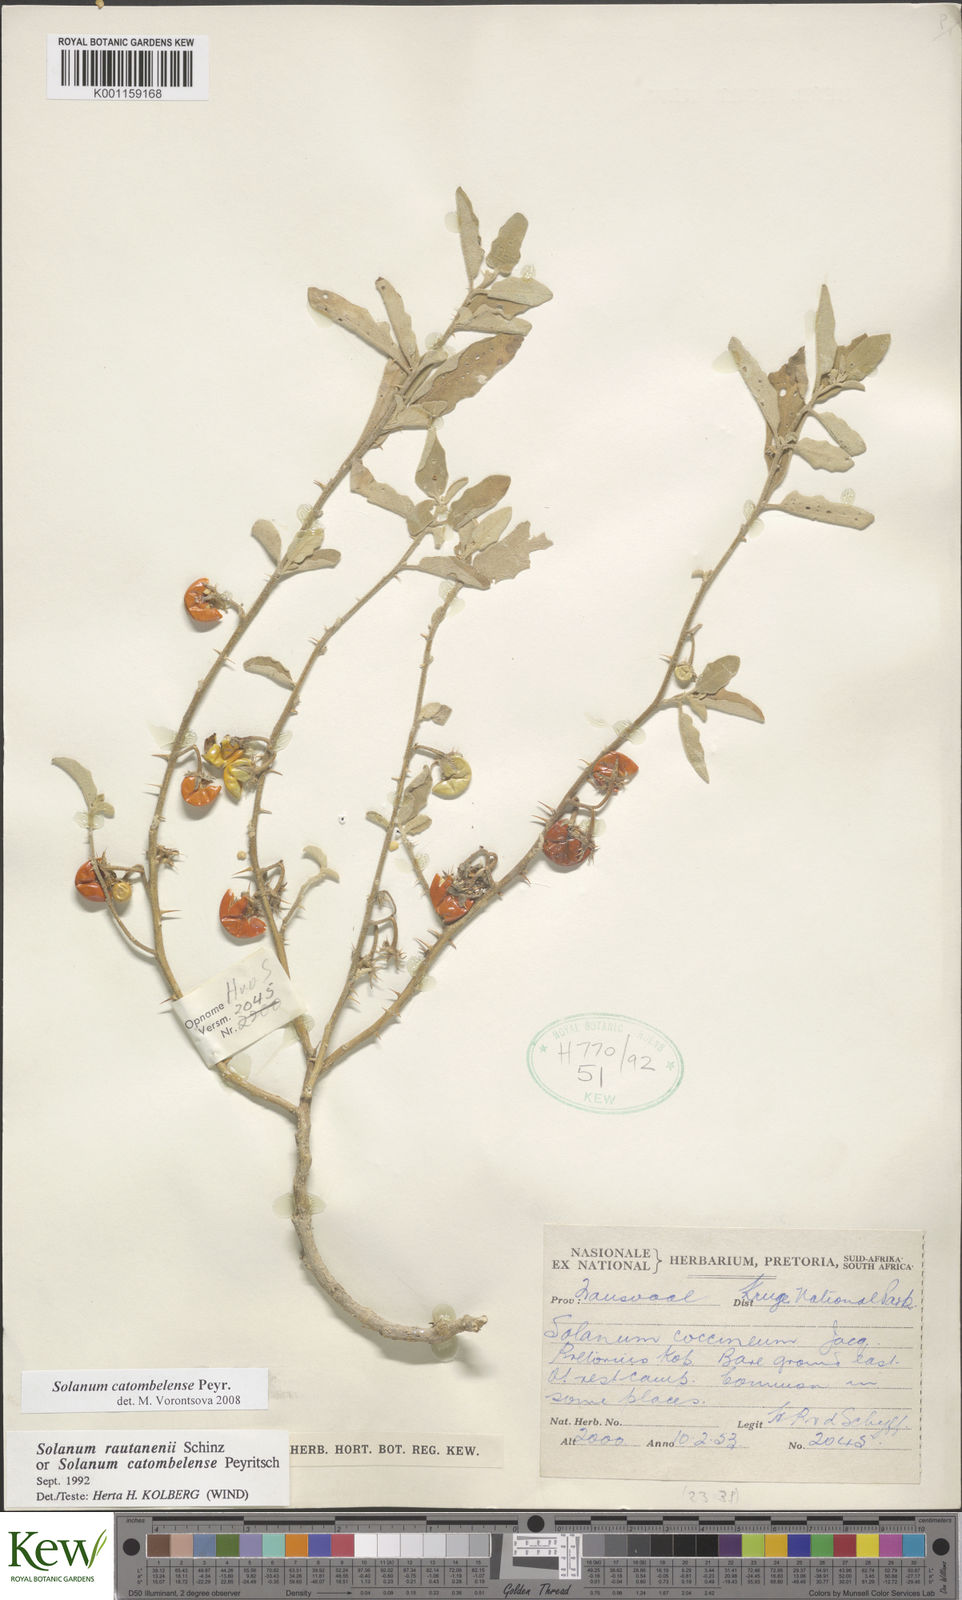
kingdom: Plantae
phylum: Tracheophyta
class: Magnoliopsida
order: Solanales
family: Solanaceae
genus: Solanum
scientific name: Solanum catombelense
